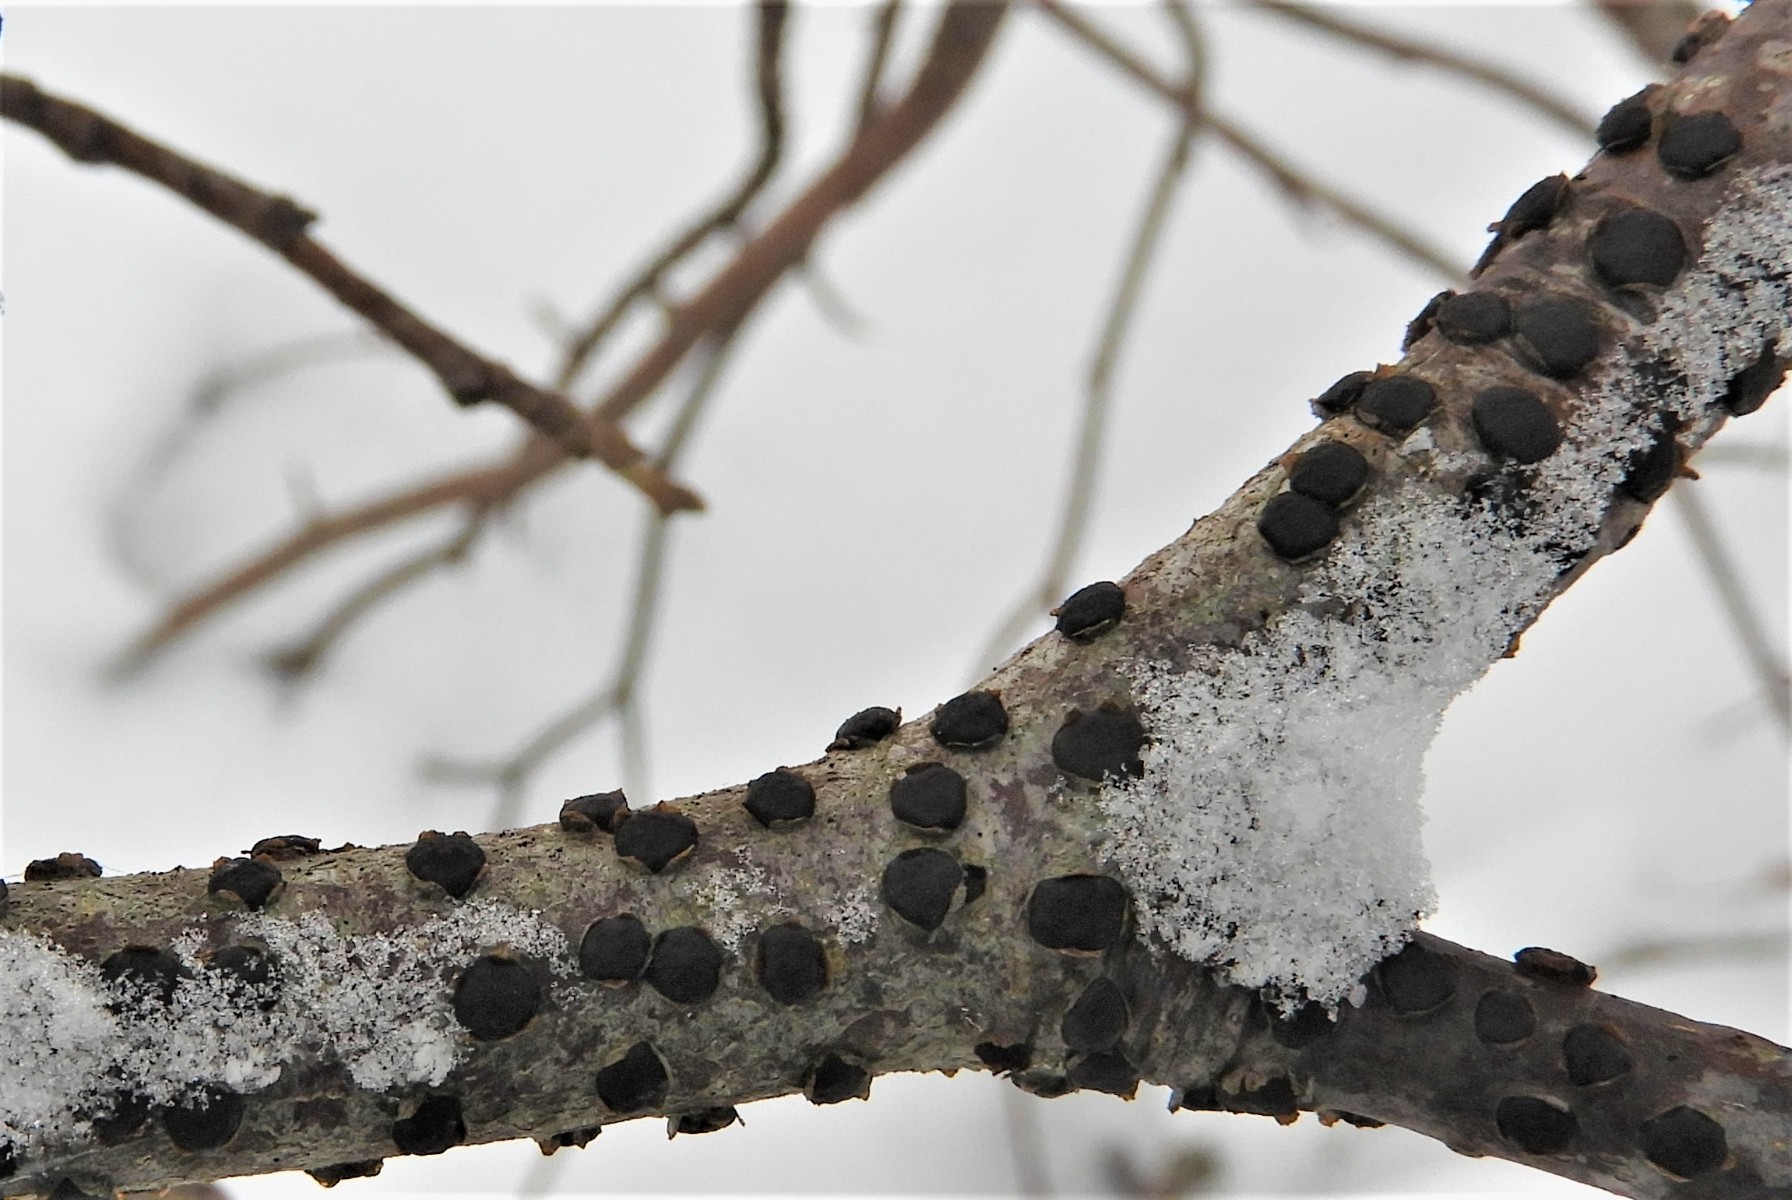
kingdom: Fungi
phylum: Ascomycota
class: Sordariomycetes
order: Xylariales
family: Diatrypaceae
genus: Diatrype
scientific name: Diatrype disciformis
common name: kant-kulskorpe
